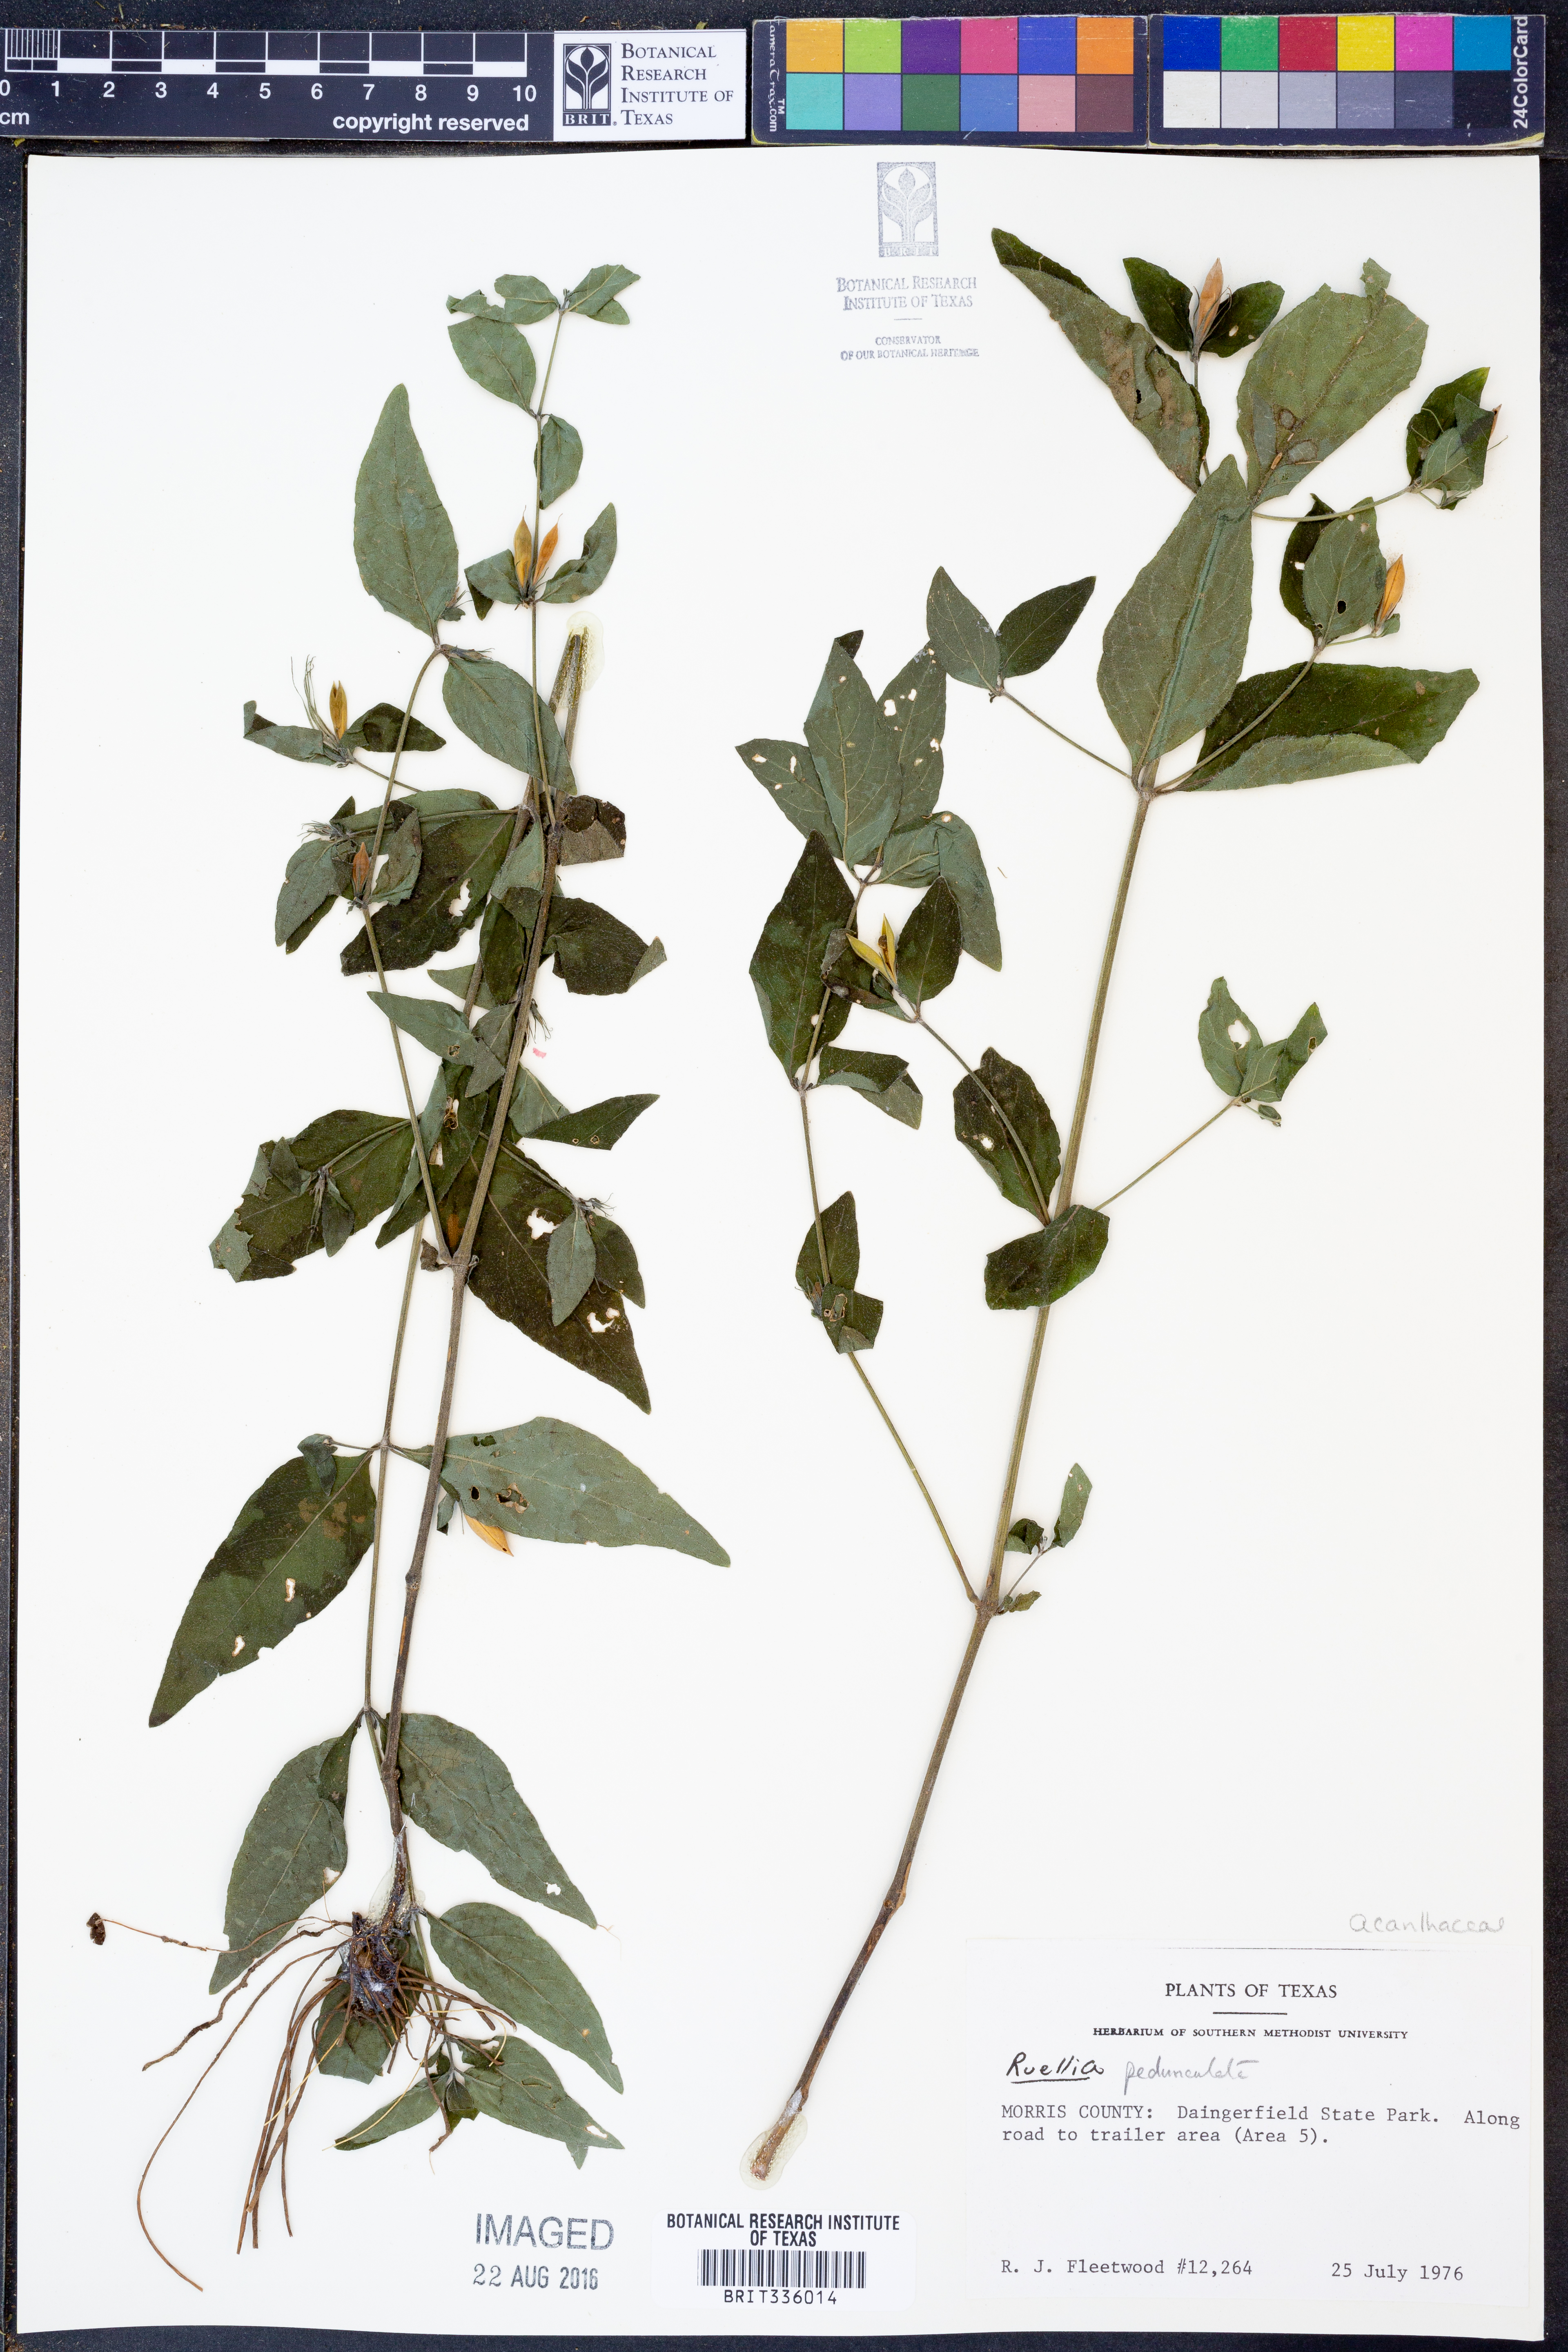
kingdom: Plantae
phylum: Tracheophyta
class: Magnoliopsida
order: Lamiales
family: Acanthaceae
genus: Ruellia
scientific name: Ruellia pedunculata
